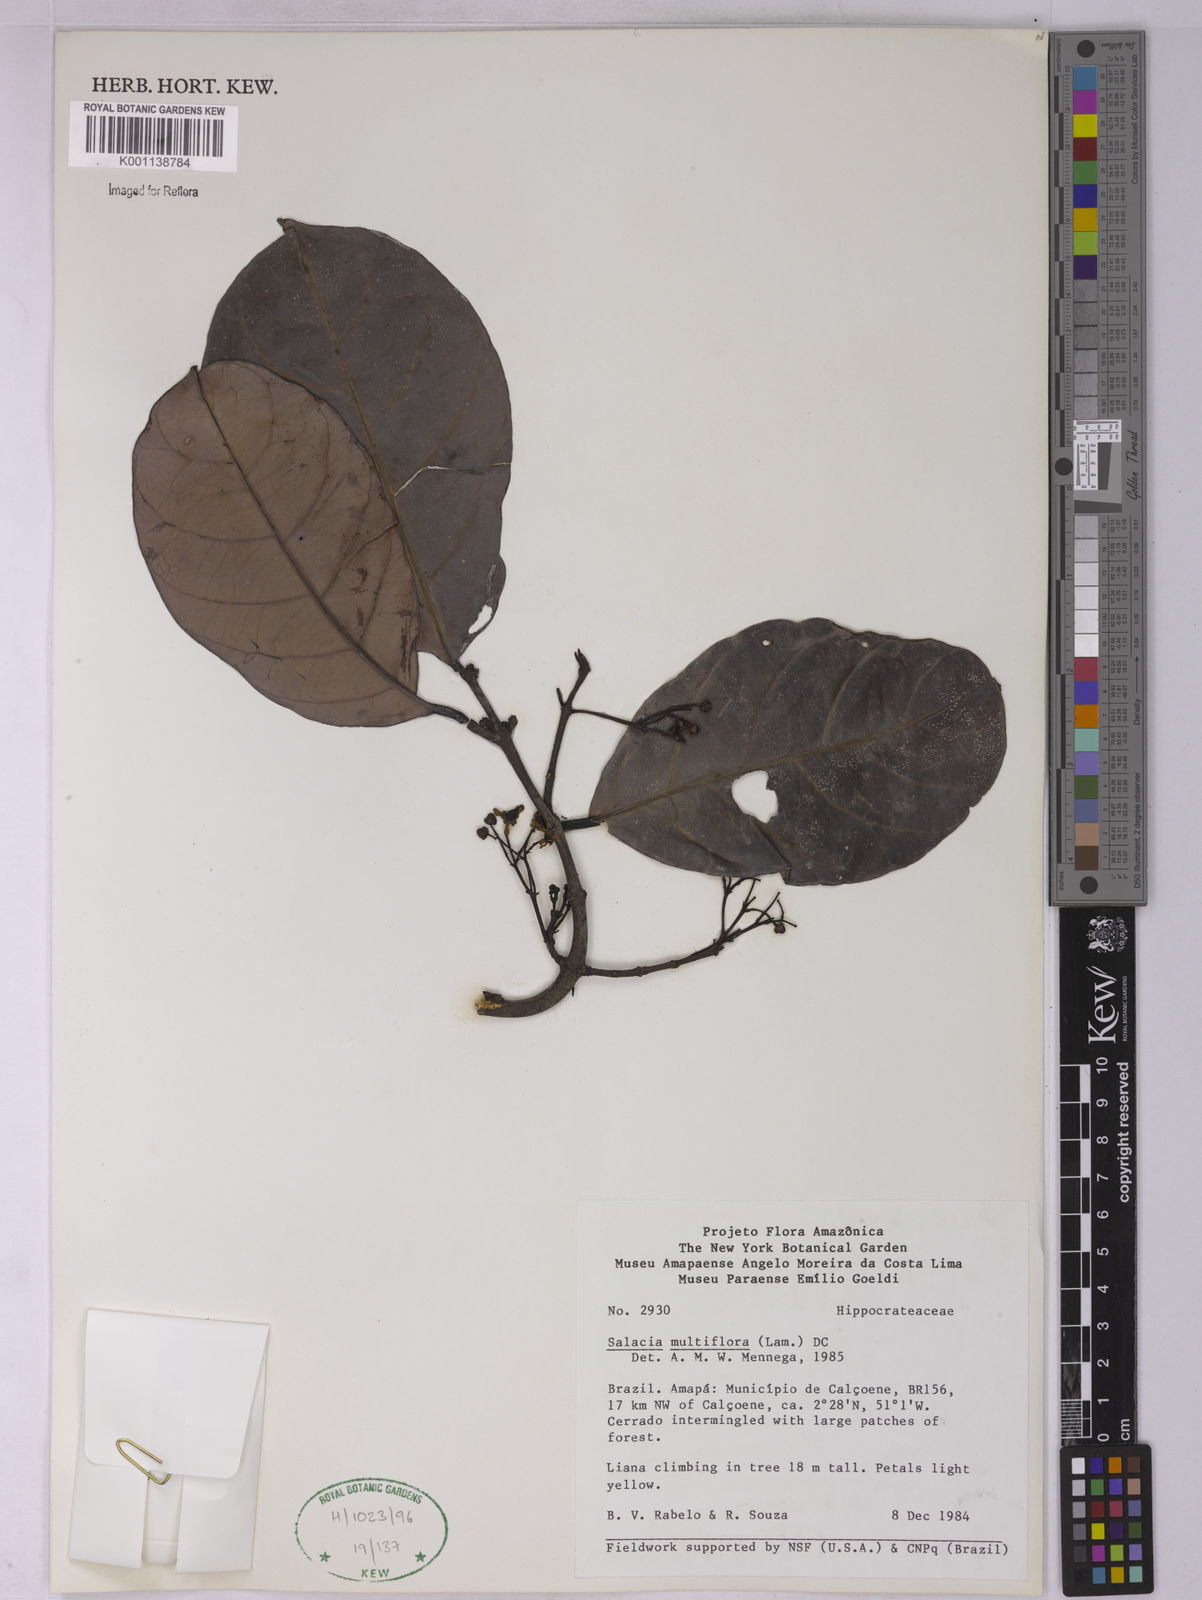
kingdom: Plantae
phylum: Tracheophyta
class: Magnoliopsida
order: Celastrales
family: Celastraceae
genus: Salacia
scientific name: Salacia multiflora
